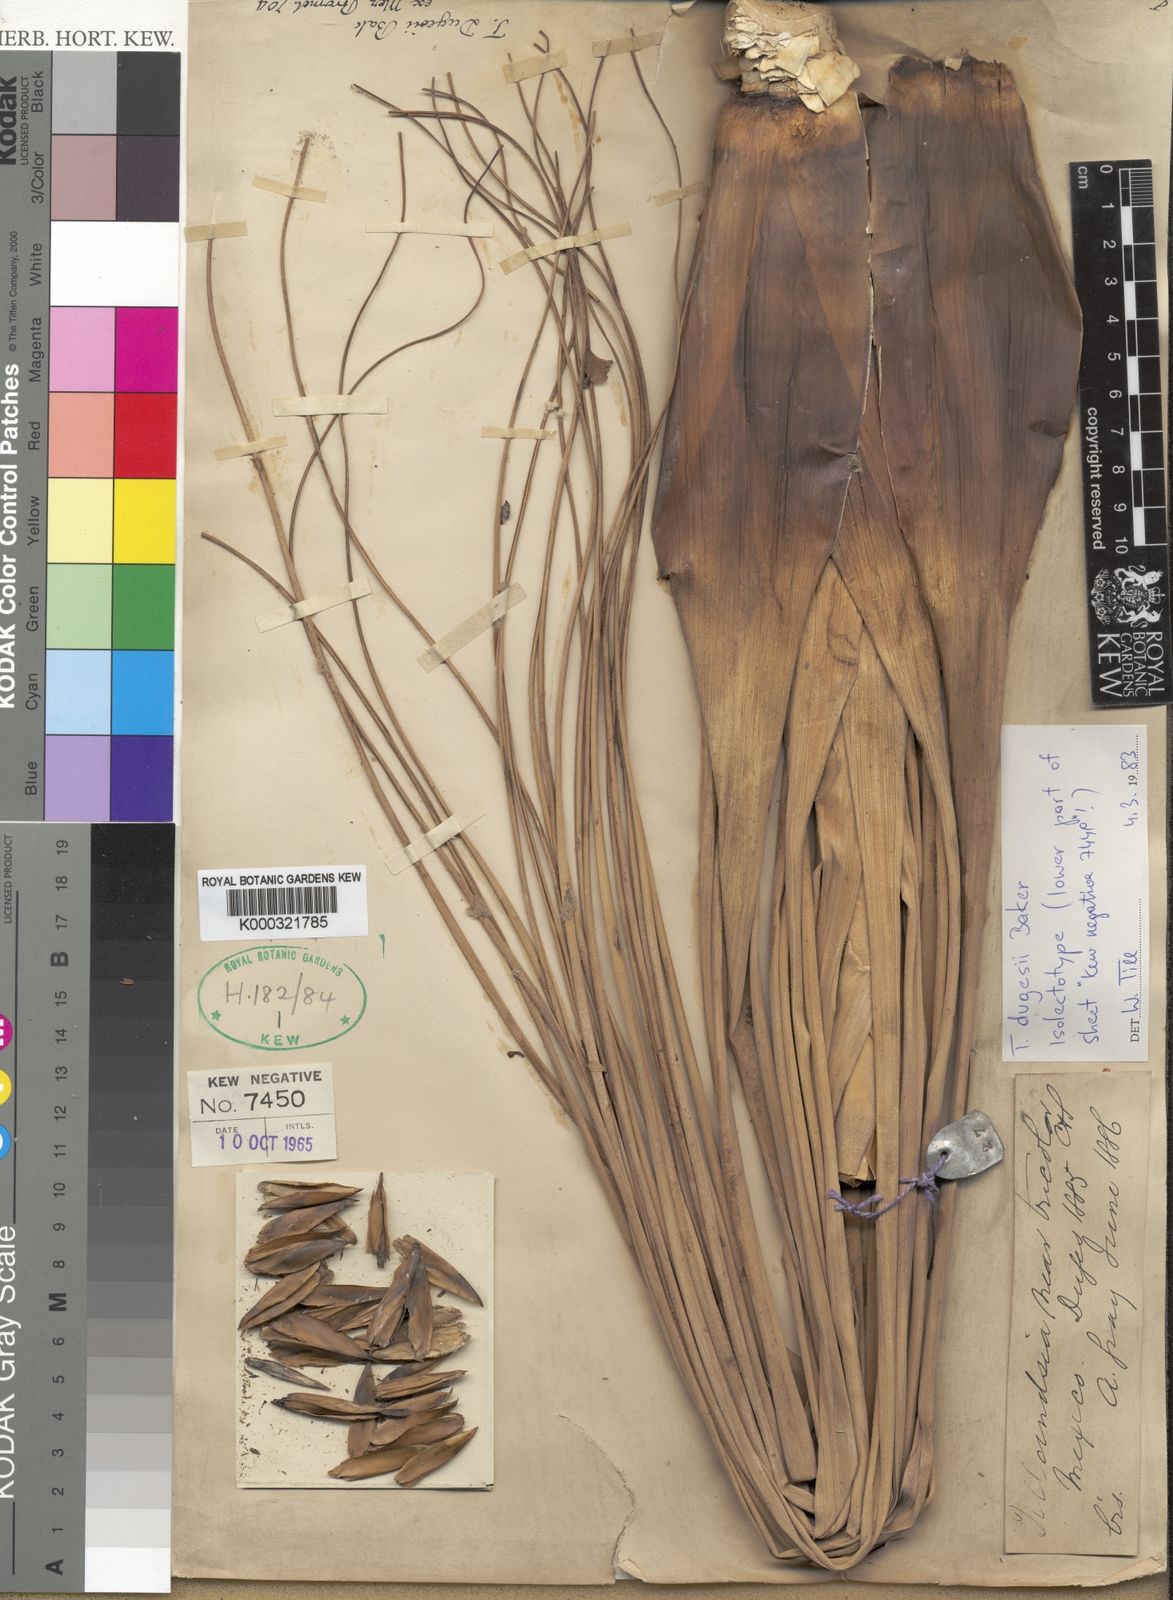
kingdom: Plantae
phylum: Tracheophyta
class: Liliopsida
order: Poales
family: Bromeliaceae
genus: Tillandsia
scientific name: Tillandsia dugesii
